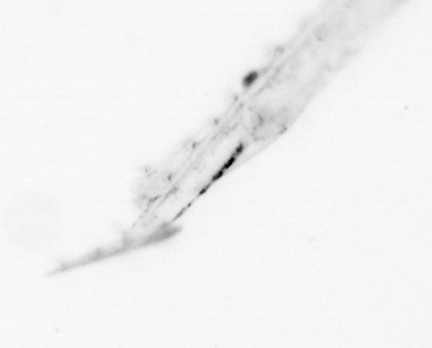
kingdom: Animalia
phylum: Chaetognatha
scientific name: Chaetognatha
